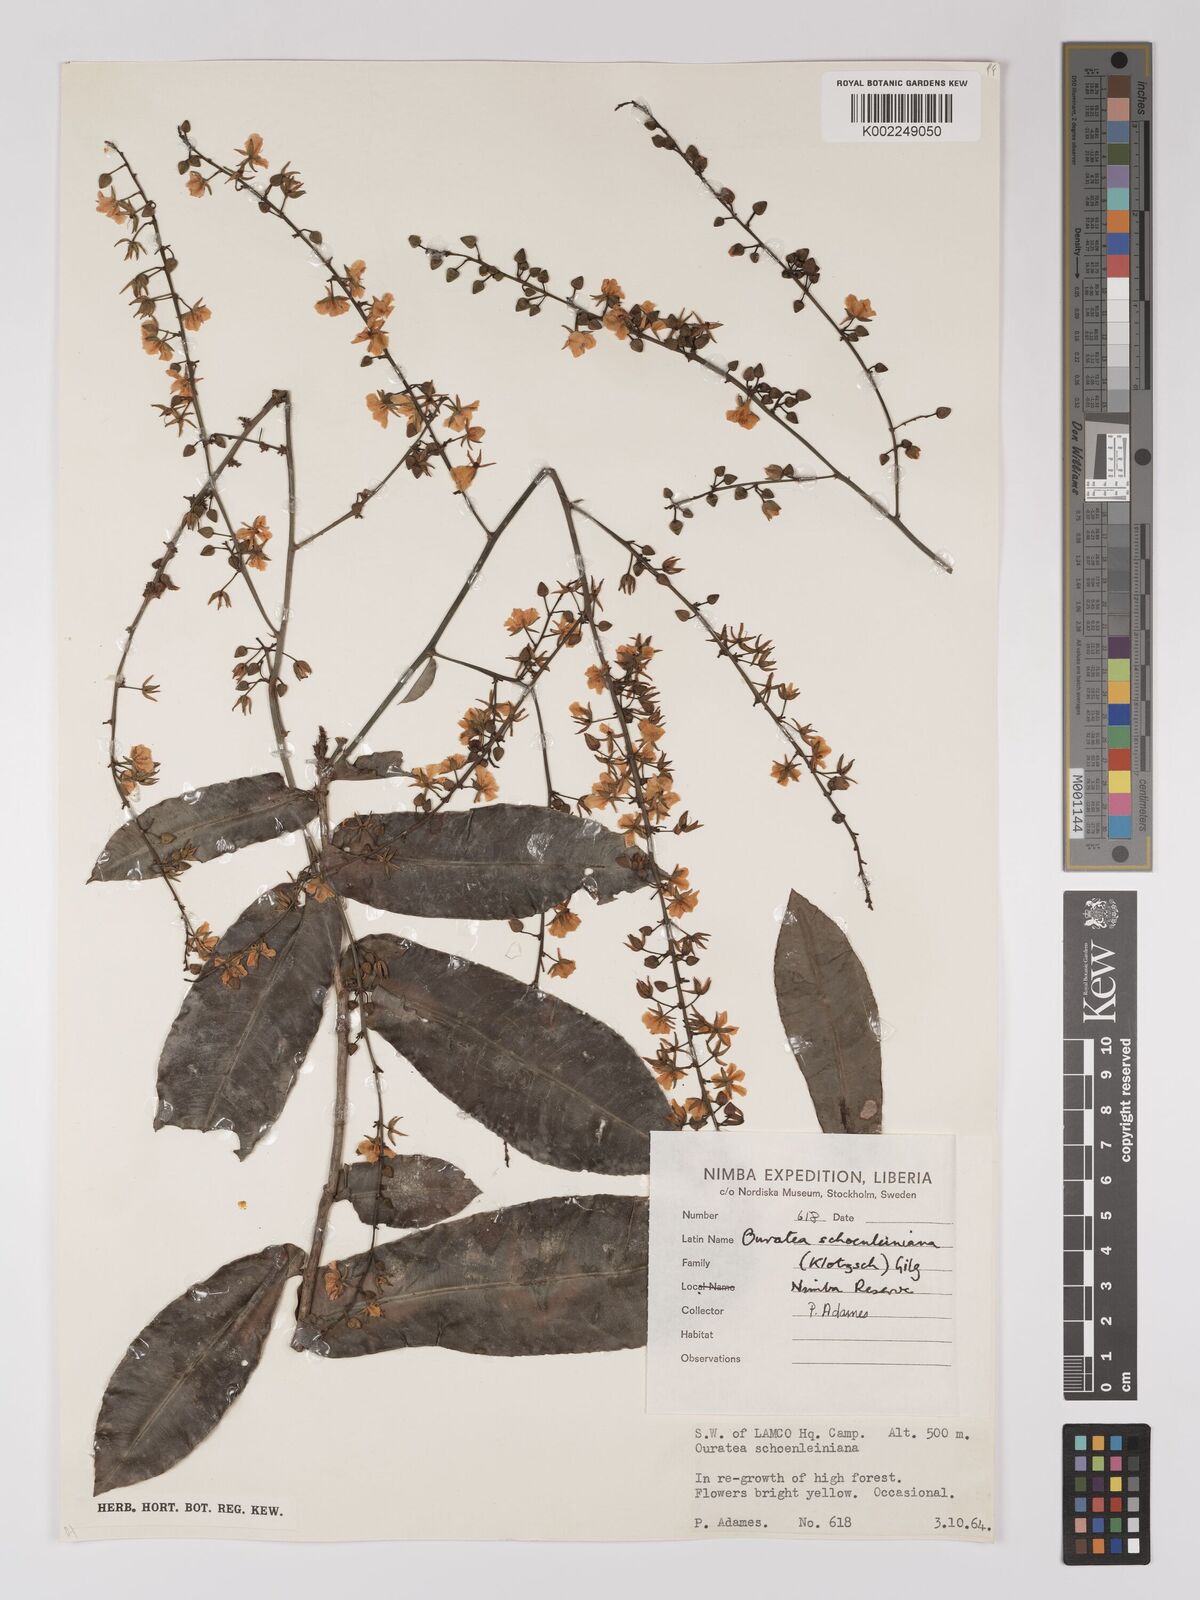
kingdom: Plantae
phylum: Tracheophyta
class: Magnoliopsida
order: Malpighiales
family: Ochnaceae
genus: Campylospermum
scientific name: Campylospermum schoenleinianum
